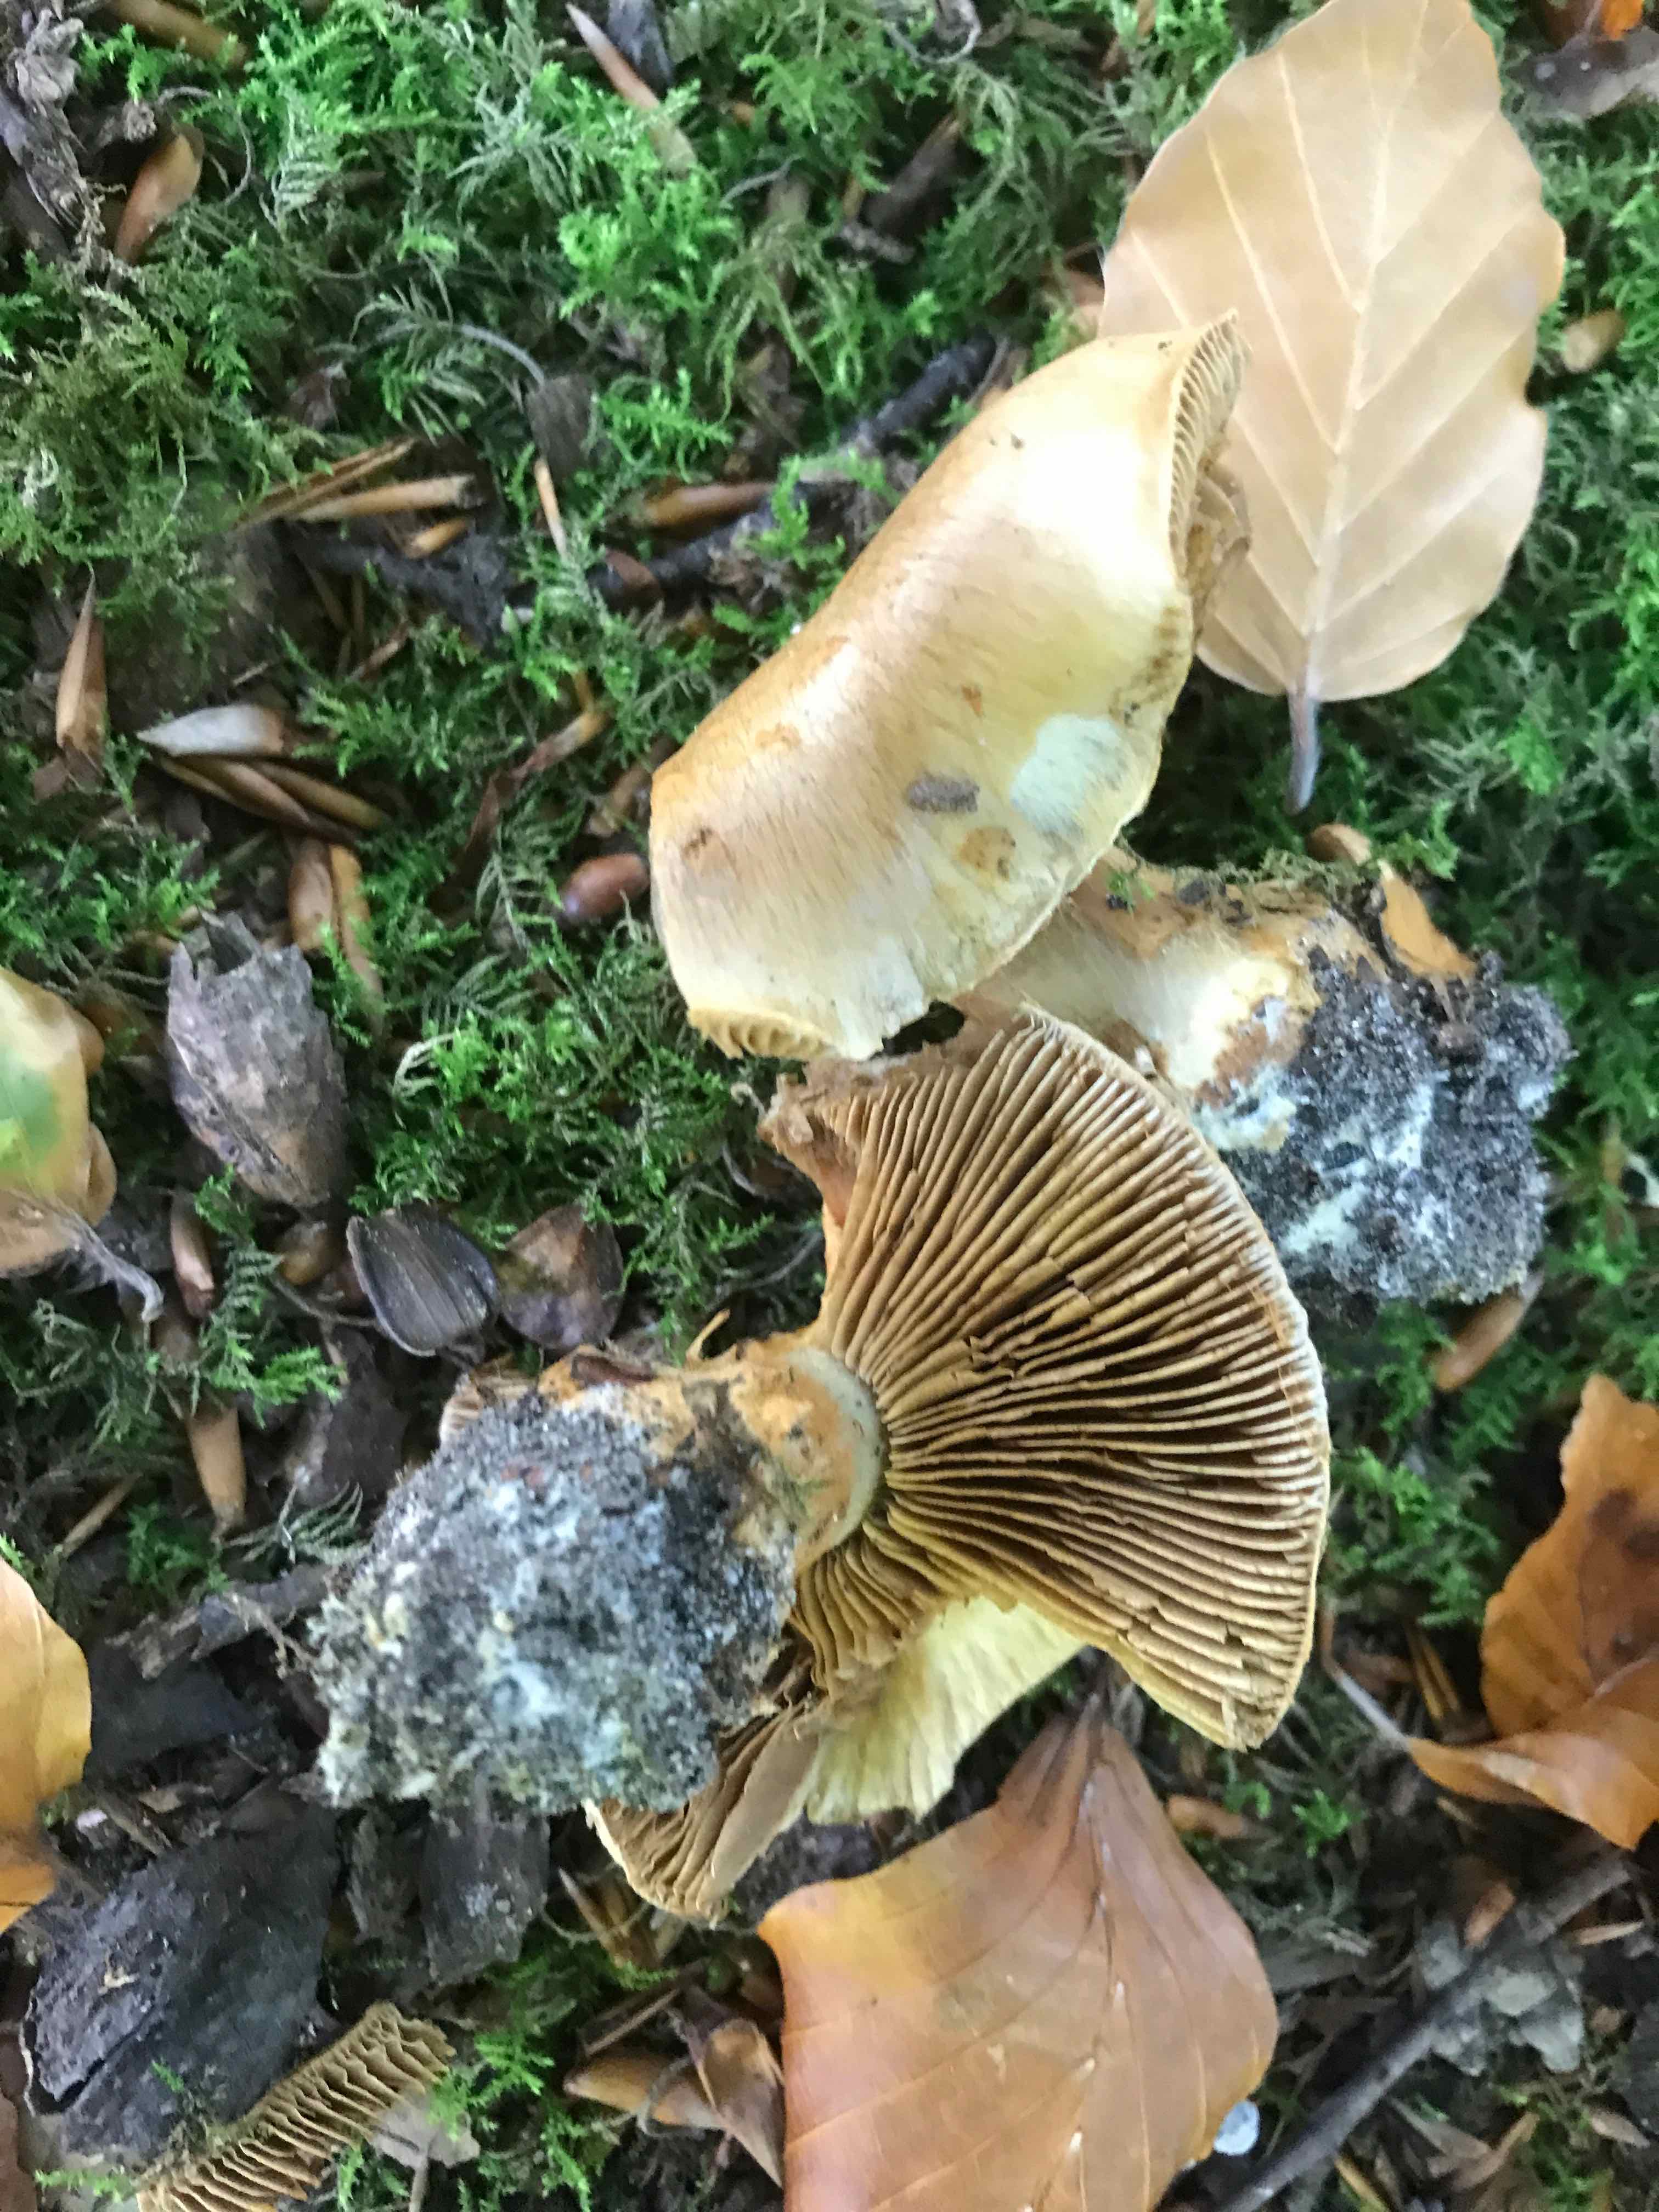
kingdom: Fungi
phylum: Basidiomycota
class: Agaricomycetes
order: Agaricales
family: Cortinariaceae
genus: Cortinarius
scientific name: Cortinarius
